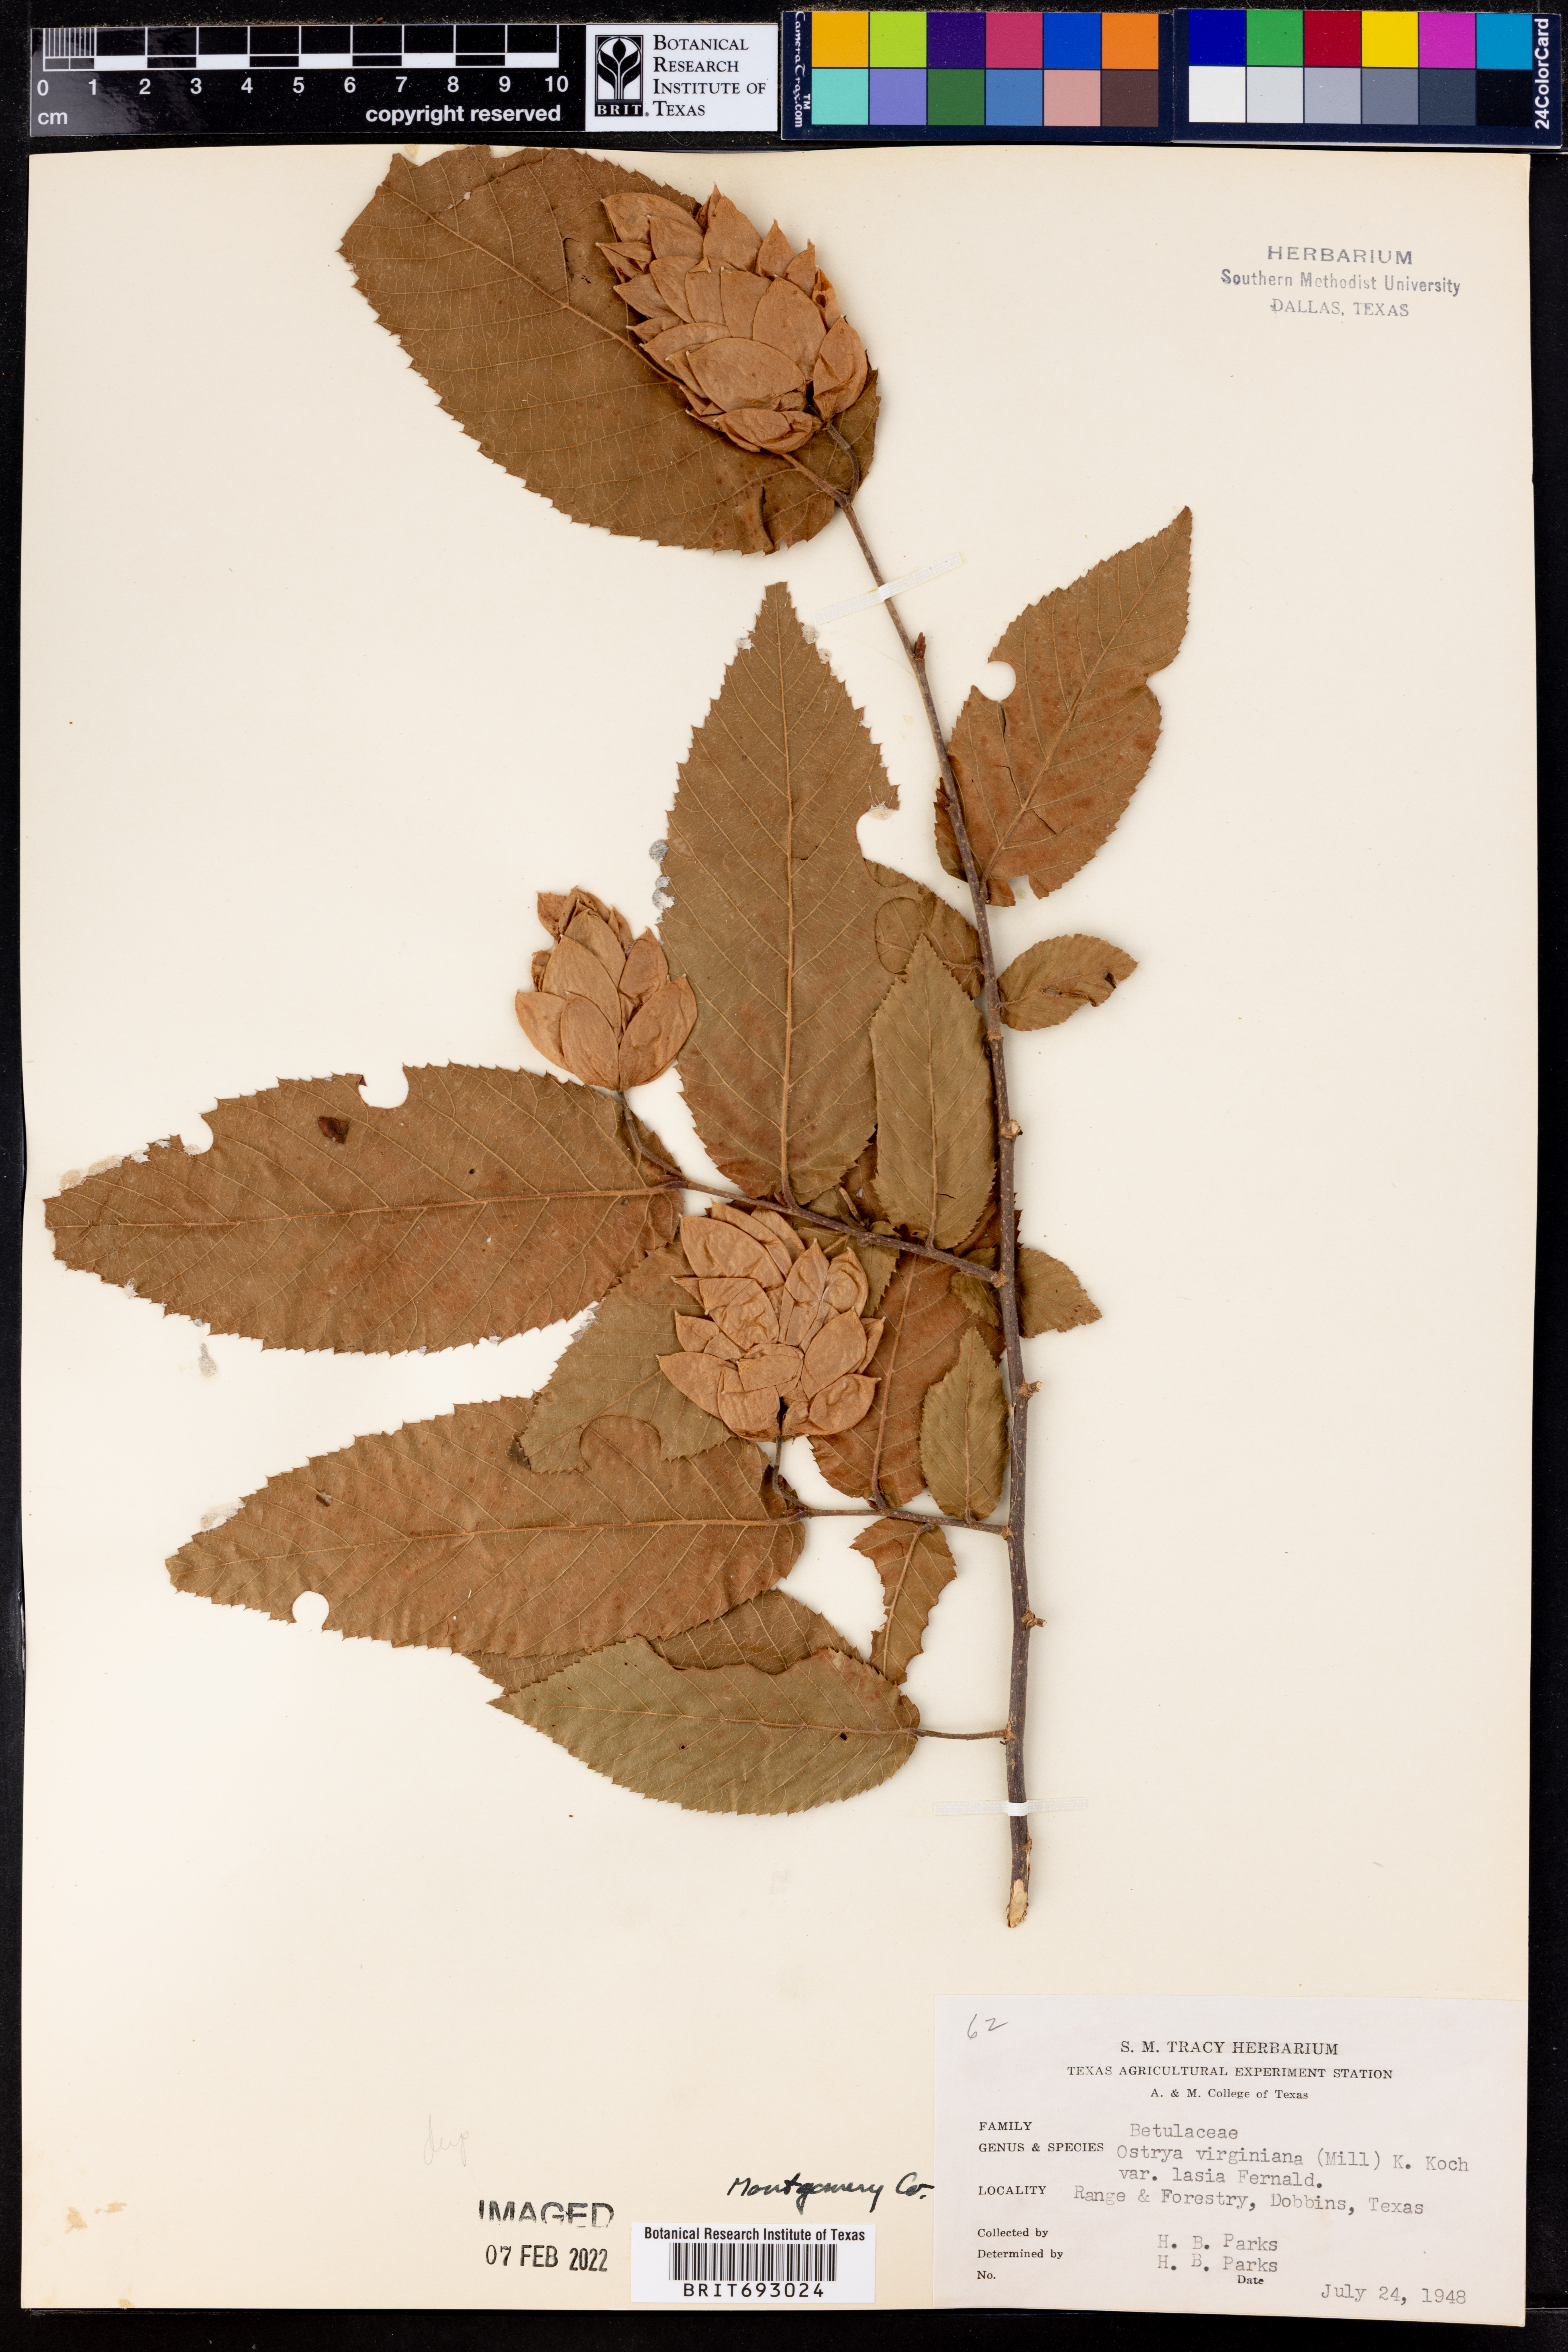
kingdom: Plantae
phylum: Tracheophyta
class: Magnoliopsida
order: Fagales
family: Betulaceae
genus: Ostrya
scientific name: Ostrya virginiana
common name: Ironwood
